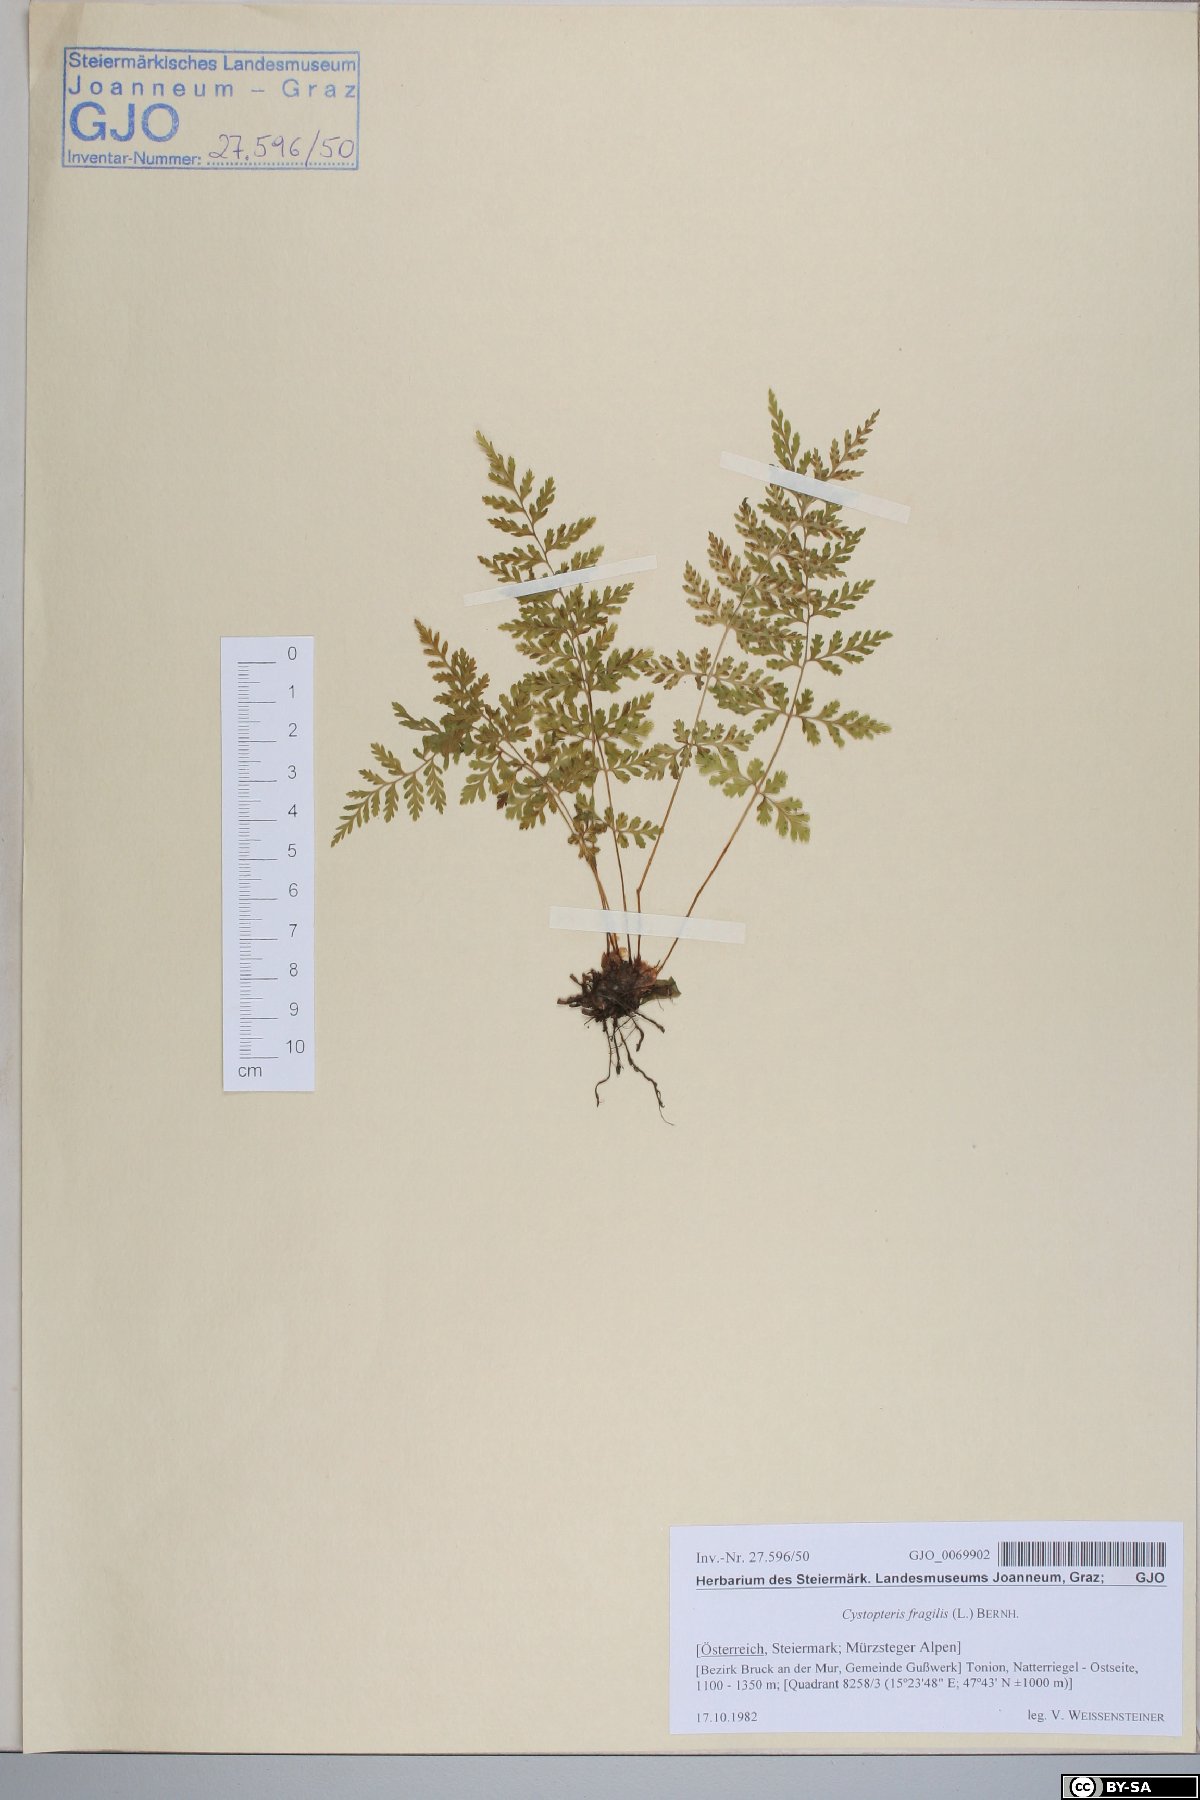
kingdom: Plantae
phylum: Tracheophyta
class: Polypodiopsida
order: Polypodiales
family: Cystopteridaceae
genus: Cystopteris
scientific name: Cystopteris fragilis
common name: Brittle bladder fern
